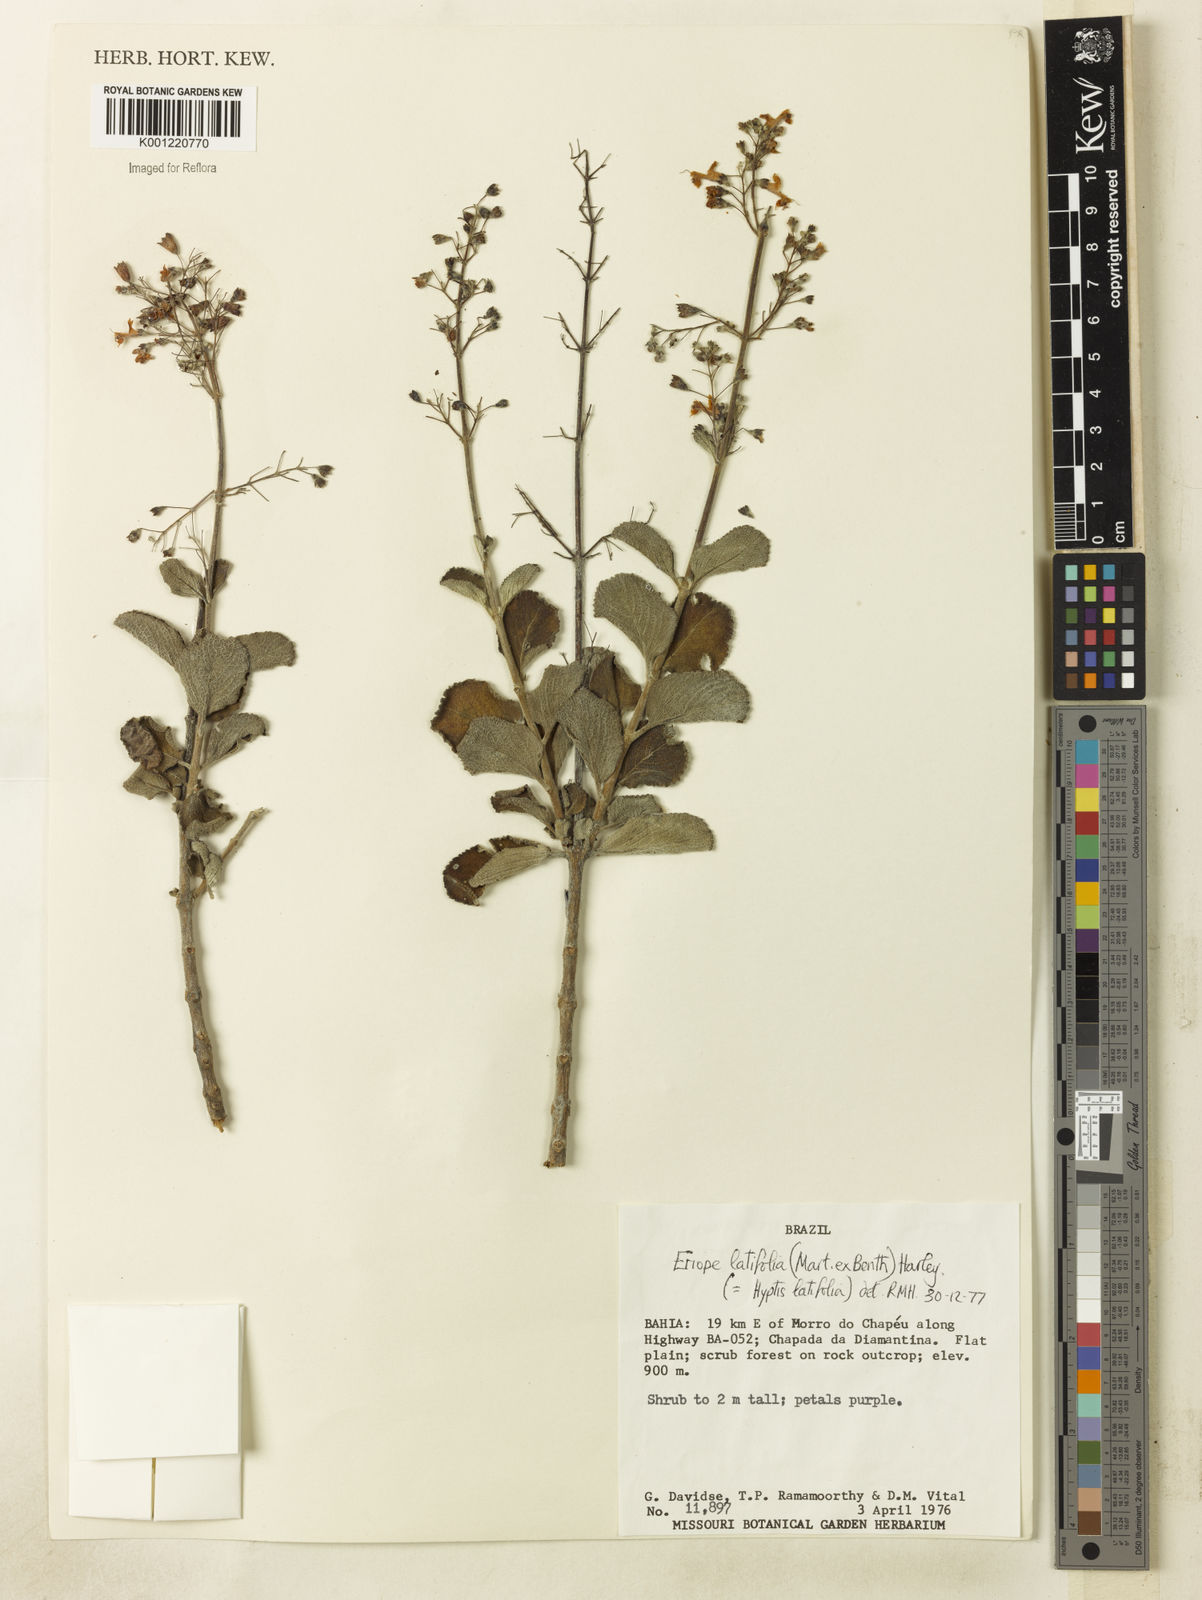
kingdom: Plantae
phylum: Tracheophyta
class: Magnoliopsida
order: Lamiales
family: Lamiaceae
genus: Eriope
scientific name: Eriope latifolia
